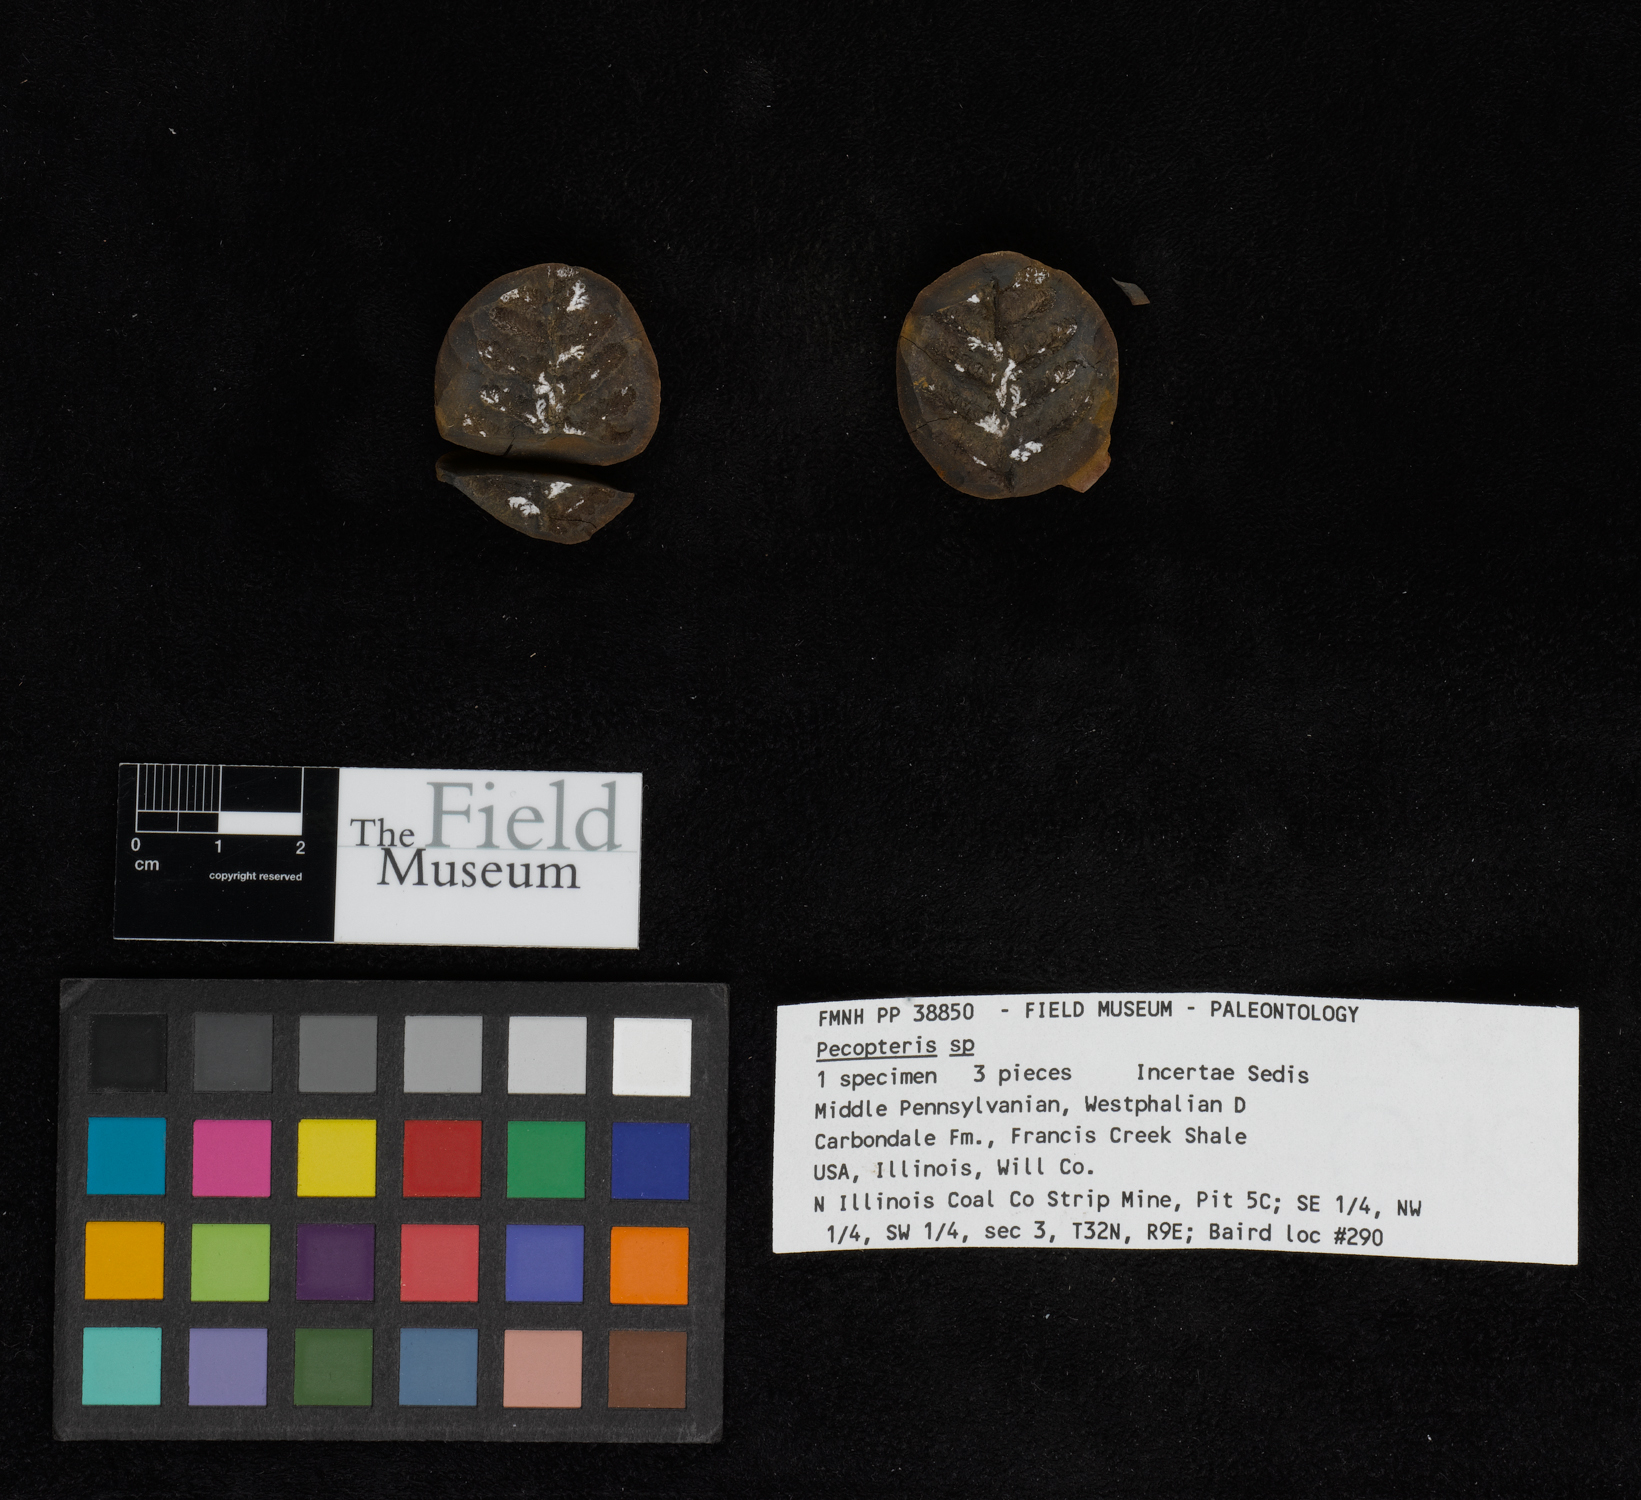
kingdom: Plantae
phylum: Tracheophyta
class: Polypodiopsida
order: Marattiales
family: Asterothecaceae
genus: Pecopteris
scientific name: Pecopteris
